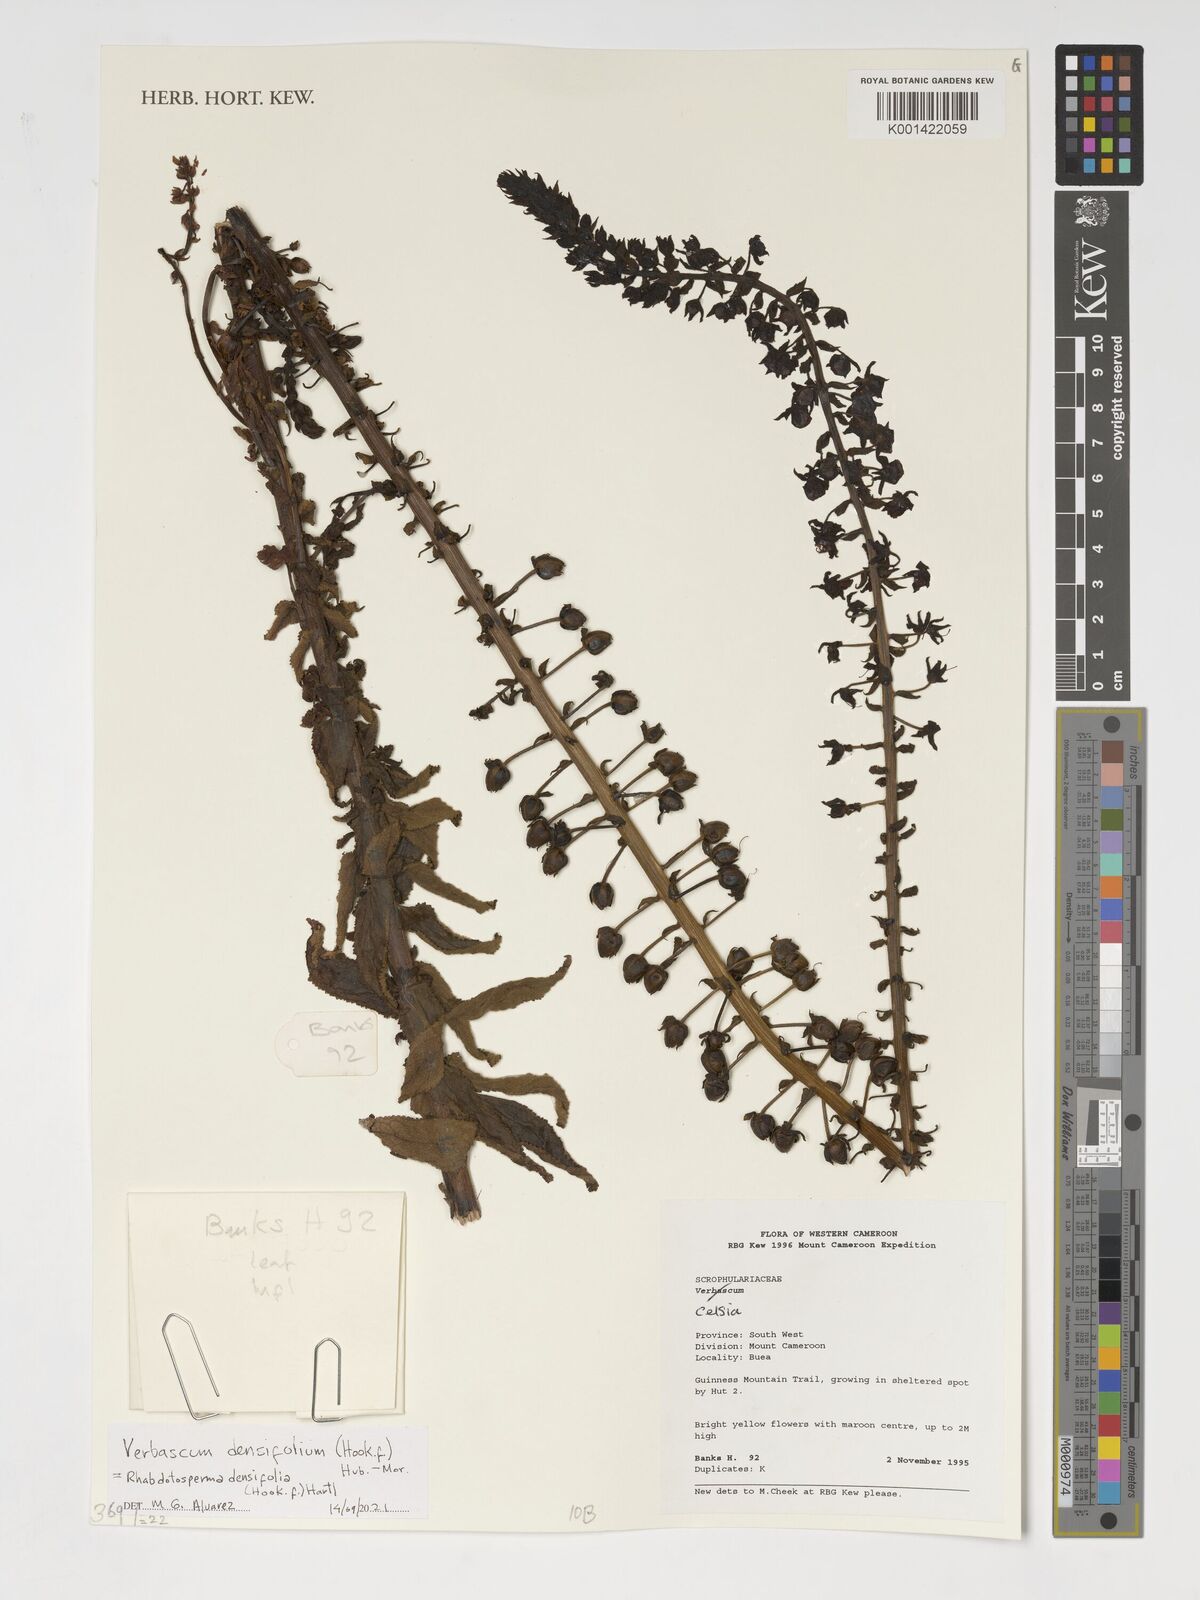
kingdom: Plantae
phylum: Tracheophyta
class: Magnoliopsida
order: Lamiales
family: Scrophulariaceae
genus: Rhabdotosperma
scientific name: Rhabdotosperma densifolia
